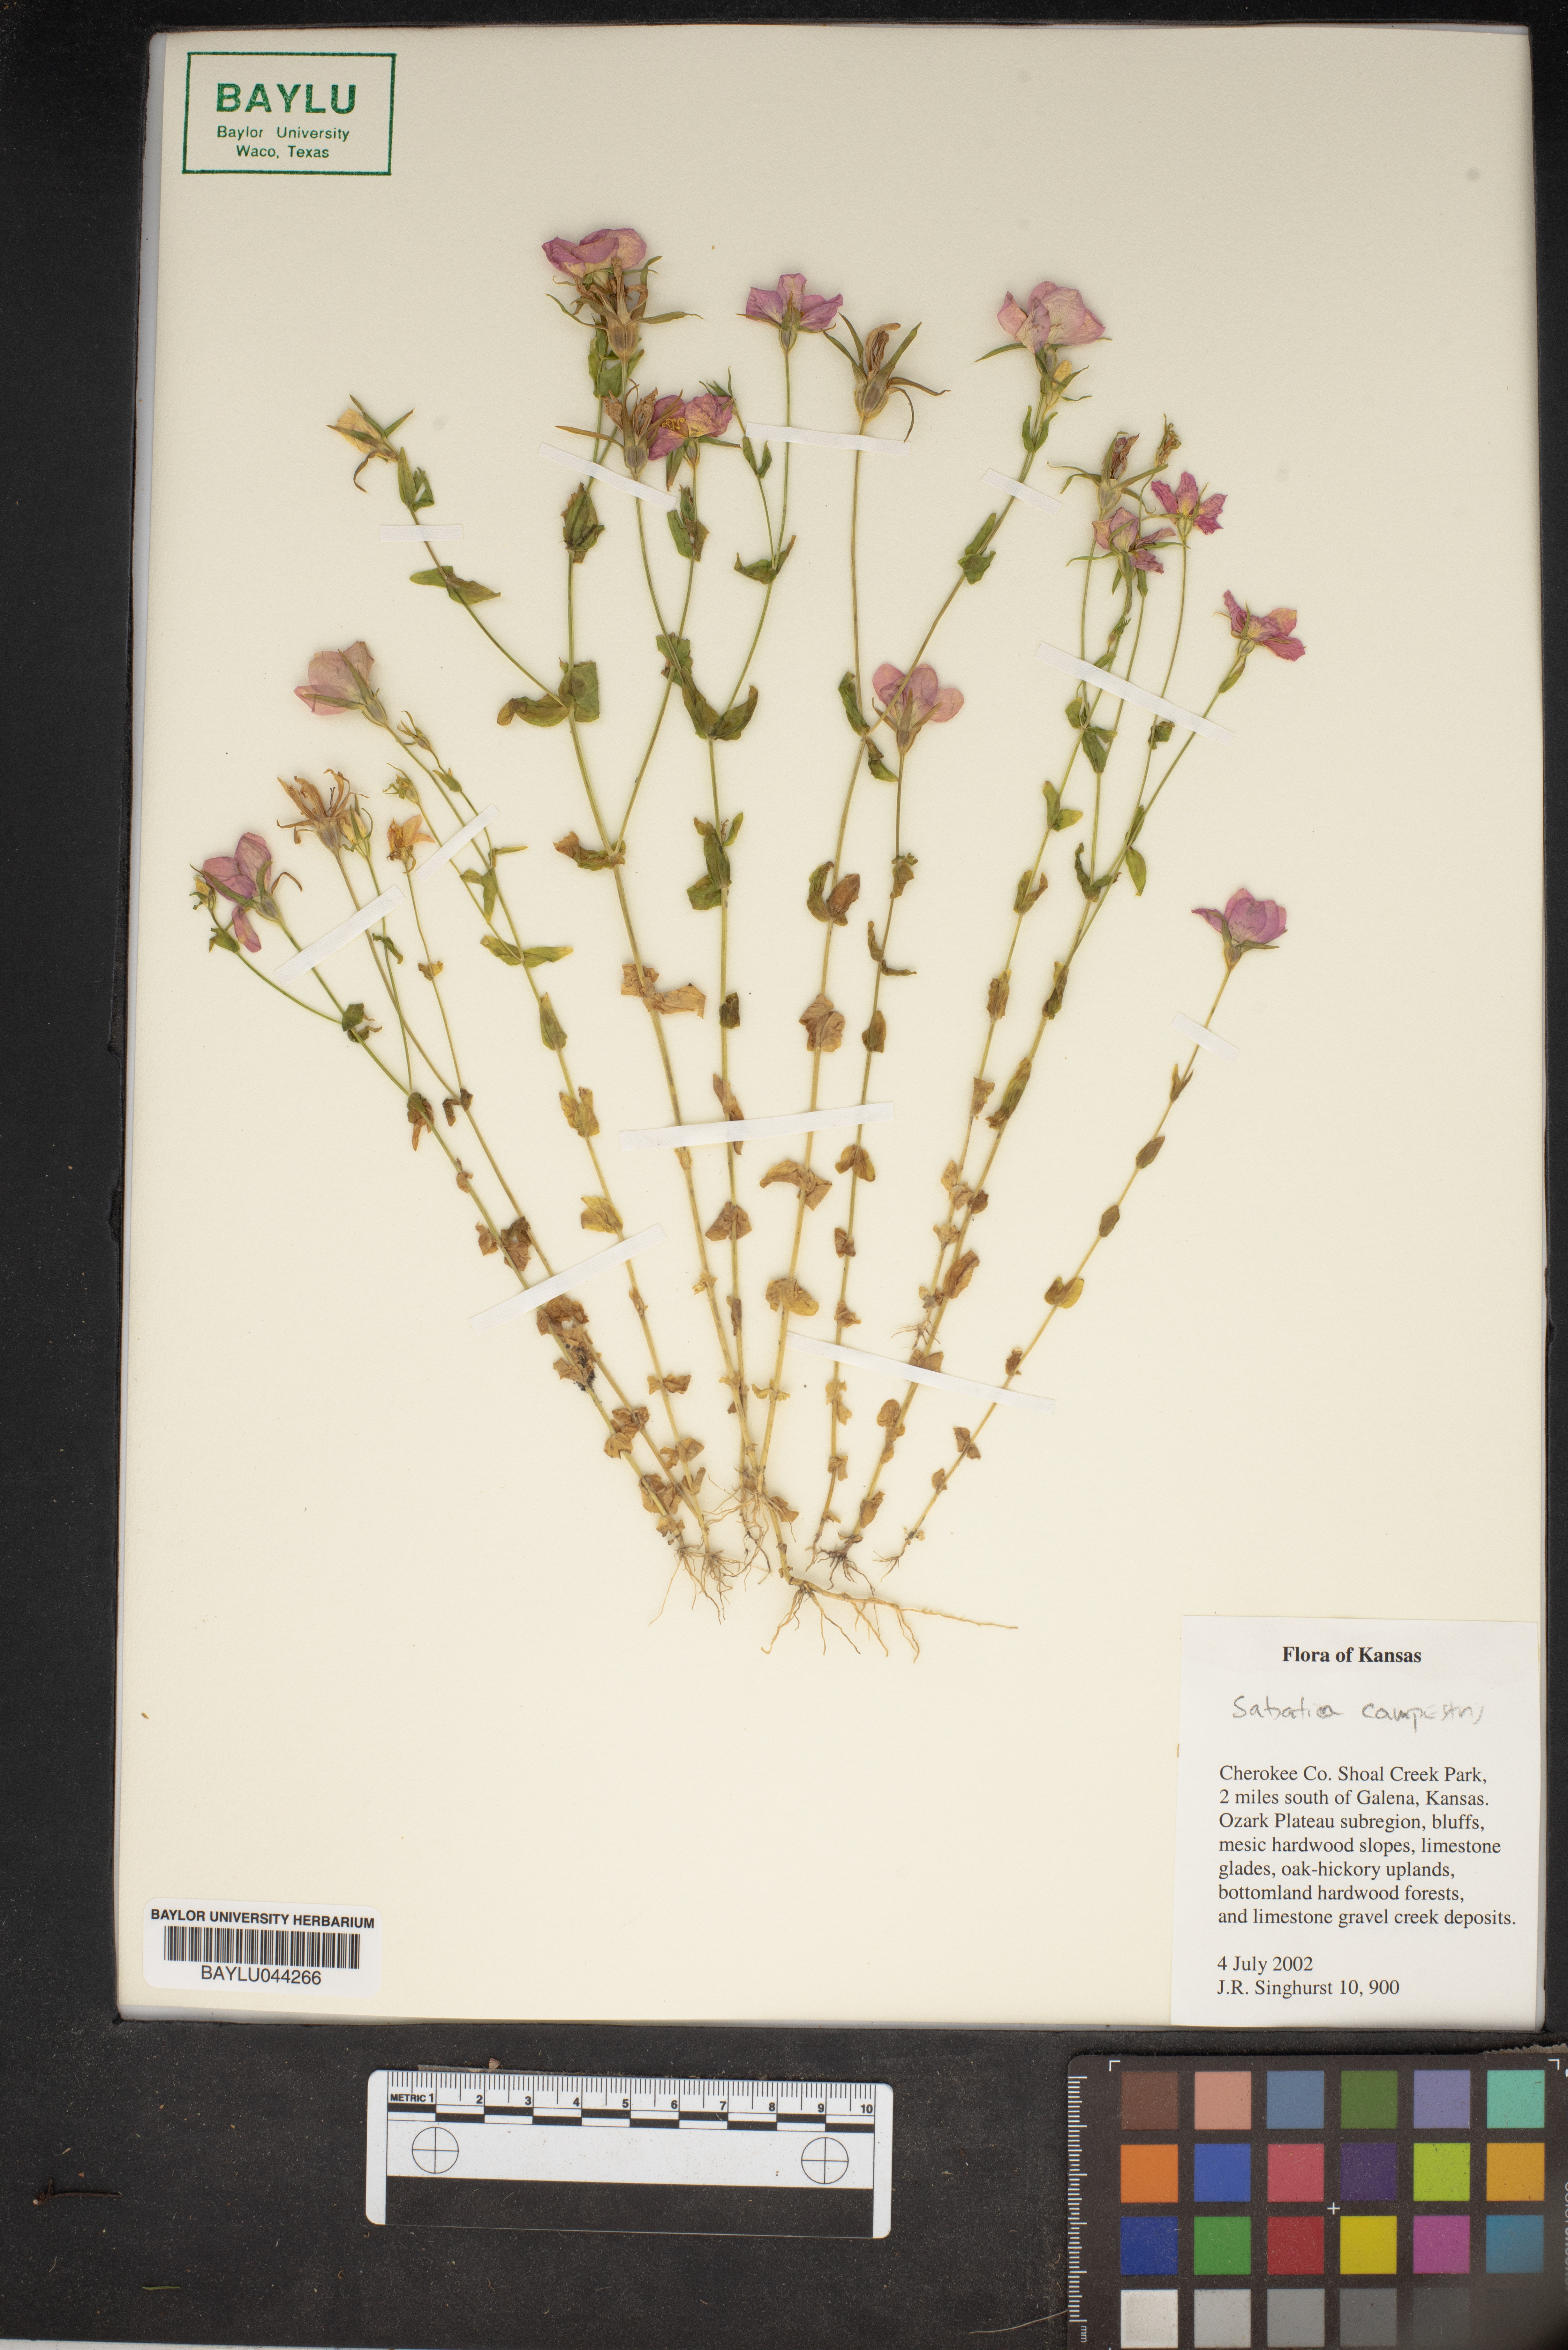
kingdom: Plantae
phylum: Tracheophyta
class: Magnoliopsida
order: Gentianales
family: Gentianaceae
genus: Sabatia
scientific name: Sabatia campestris
